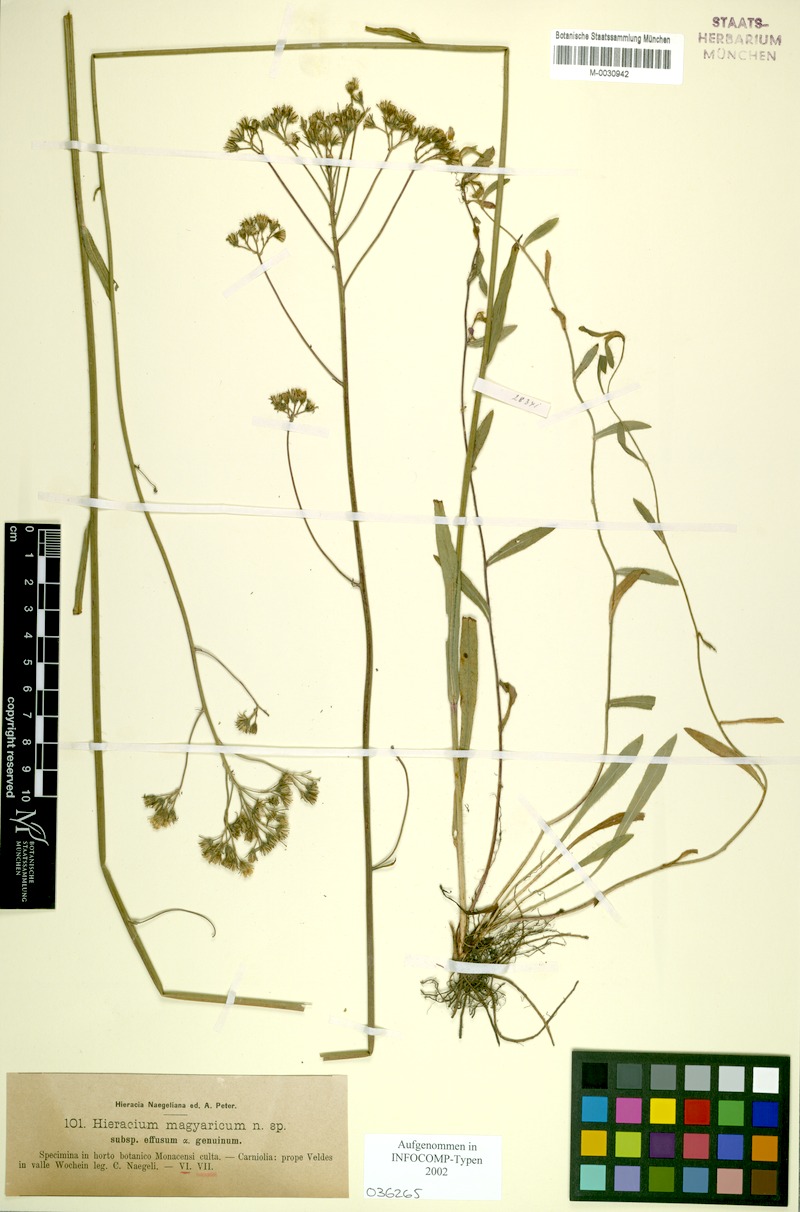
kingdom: Plantae
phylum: Tracheophyta
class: Magnoliopsida
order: Asterales
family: Asteraceae
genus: Pilosella
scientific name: Pilosella bauhini
